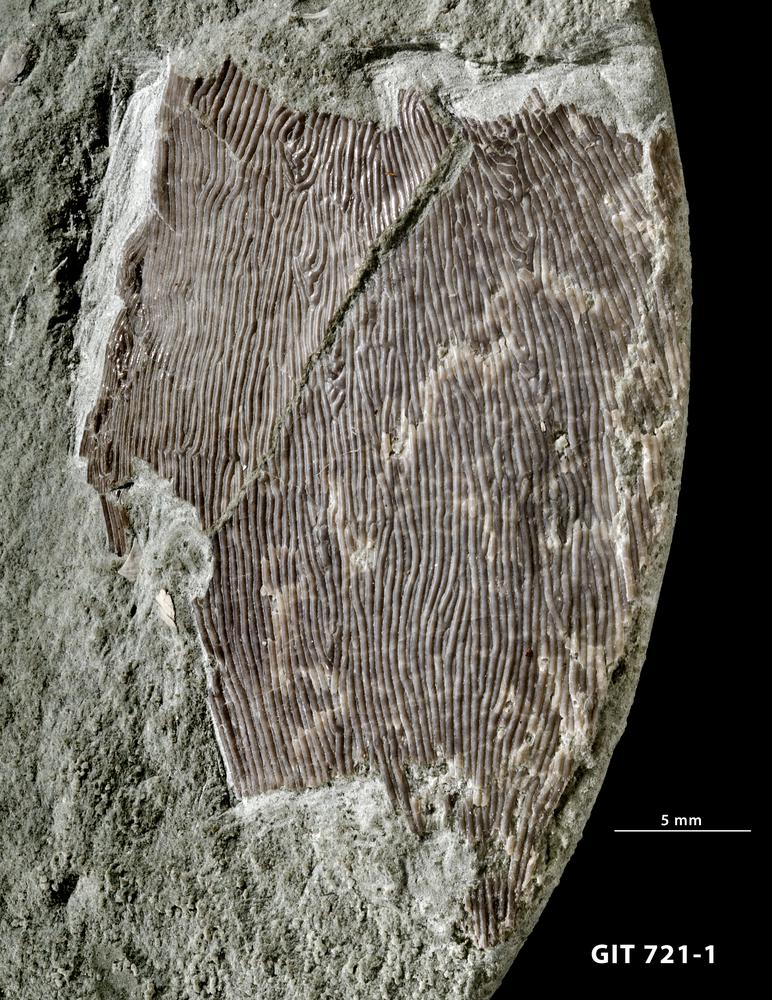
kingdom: Animalia
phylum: Chordata
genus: Archegonaspis
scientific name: Archegonaspis
